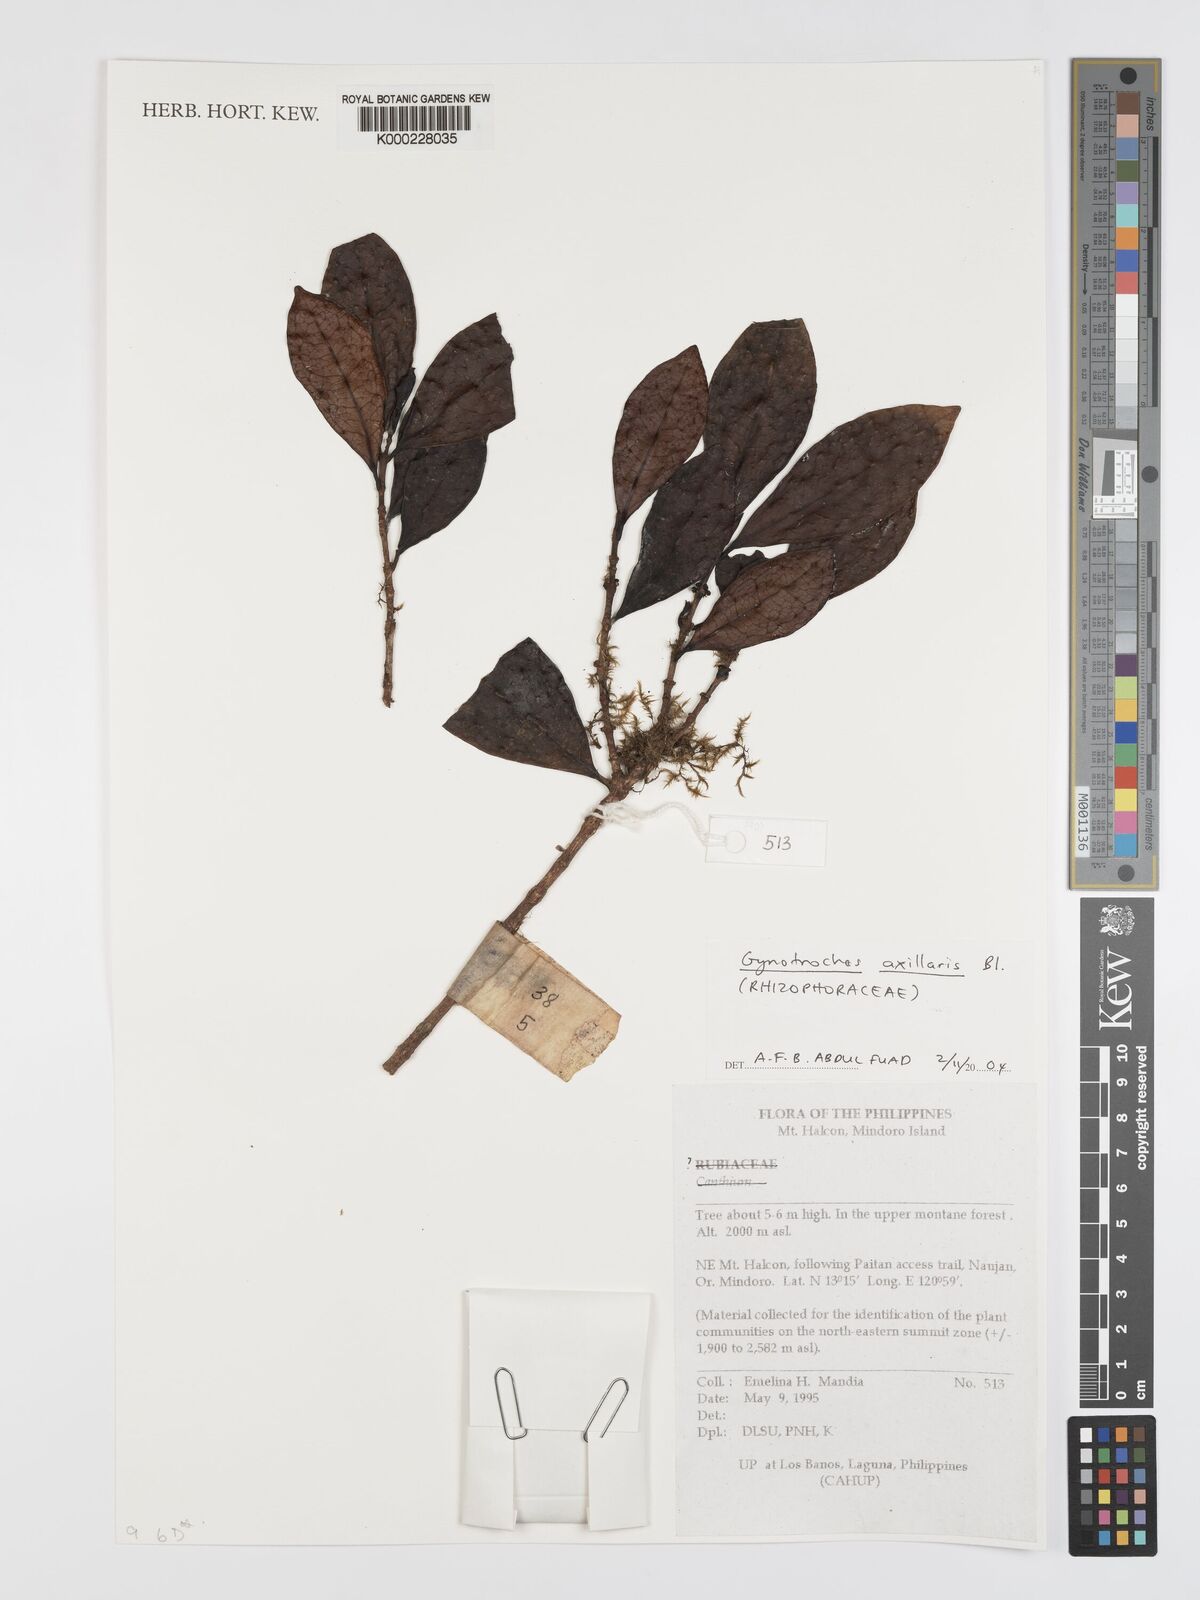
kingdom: Plantae
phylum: Tracheophyta
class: Magnoliopsida
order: Malpighiales
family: Rhizophoraceae
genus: Gynotroches
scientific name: Gynotroches axillaris
